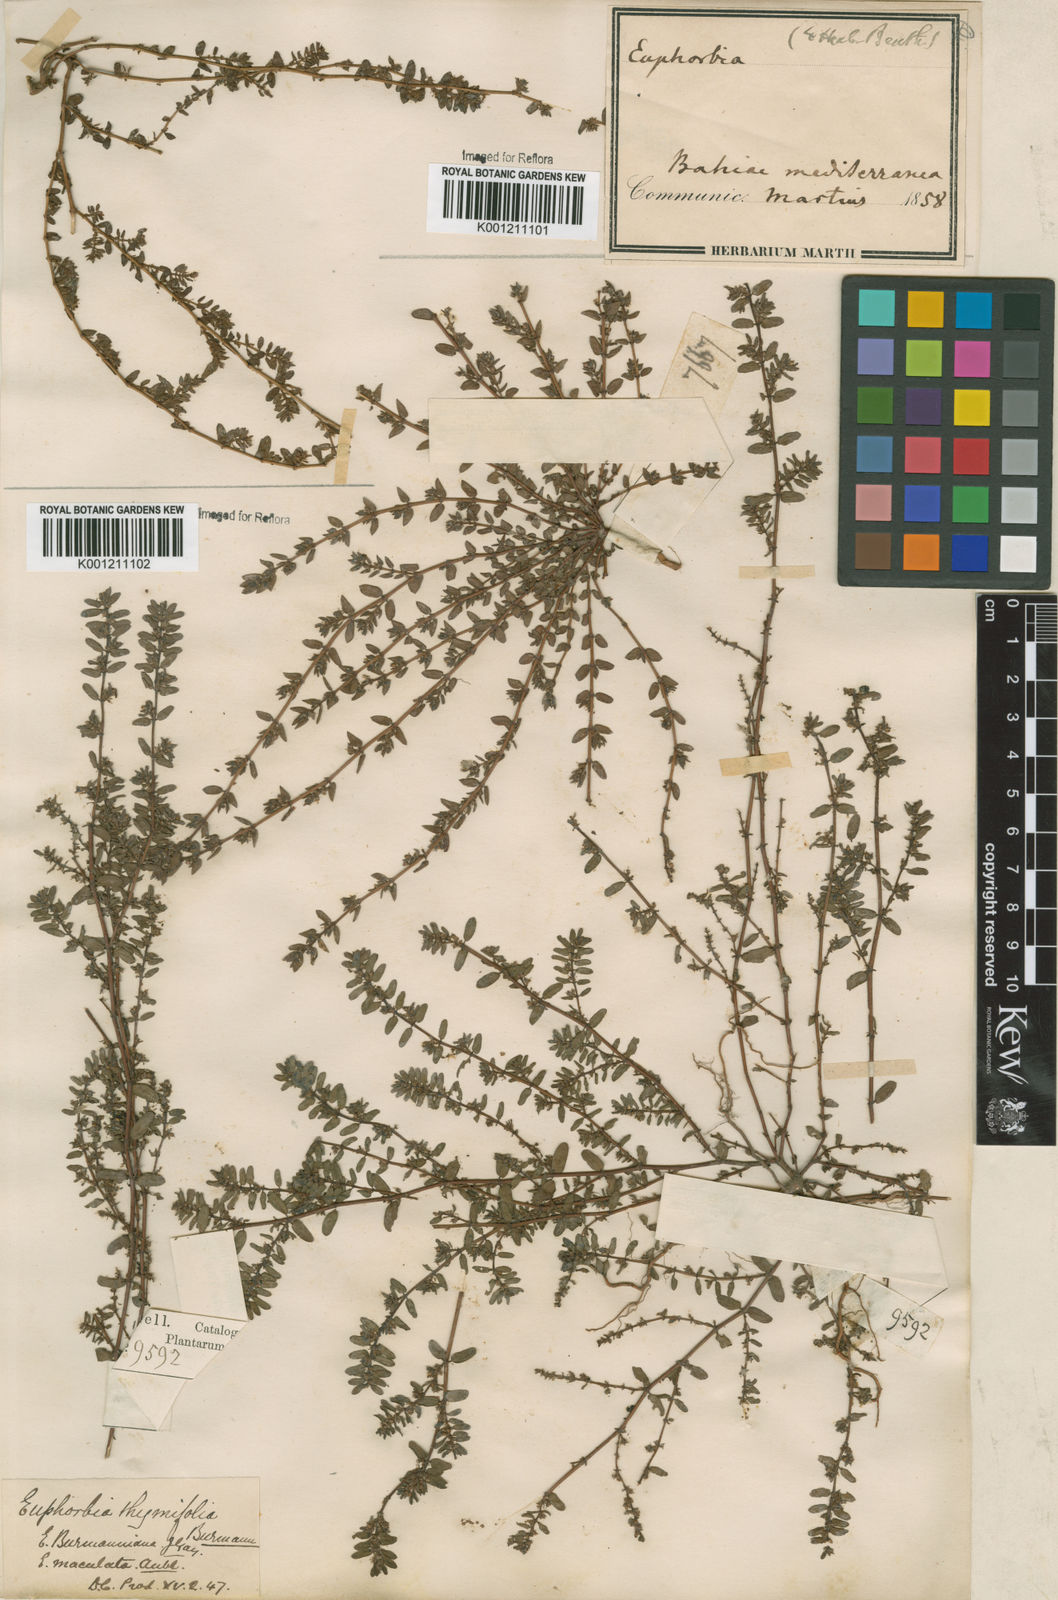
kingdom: Plantae
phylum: Tracheophyta
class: Magnoliopsida
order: Malpighiales
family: Euphorbiaceae
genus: Euphorbia
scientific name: Euphorbia thymifolia
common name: Gulf sandmat
